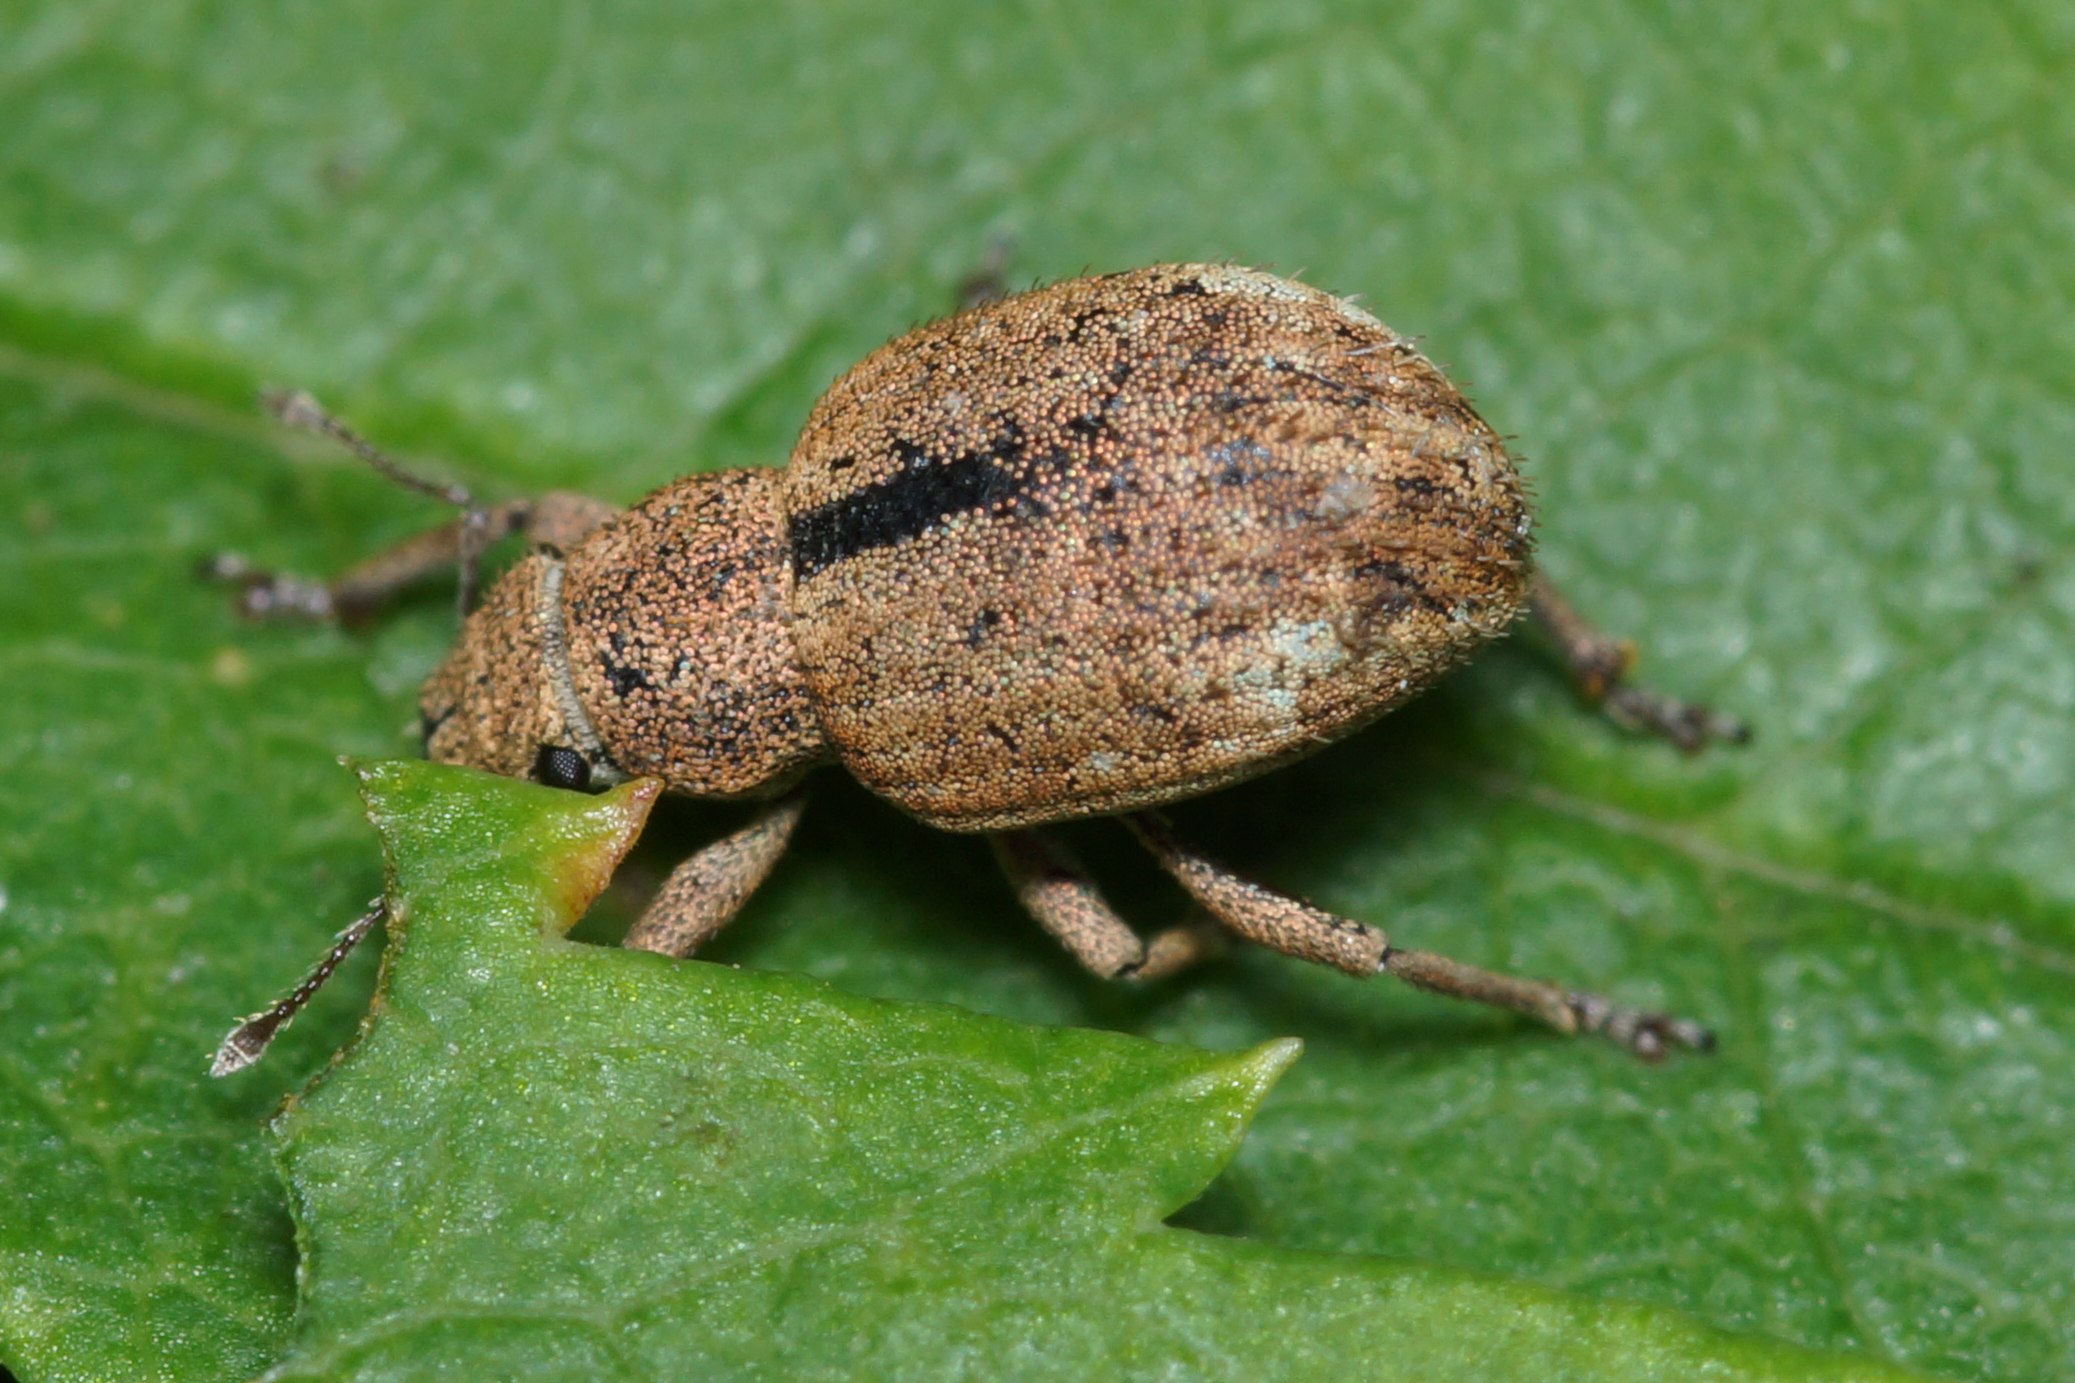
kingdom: Animalia
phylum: Arthropoda
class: Insecta
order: Coleoptera
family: Curculionidae
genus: Strophosoma
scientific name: Strophosoma melanogrammum
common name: Stribet gråsnude
